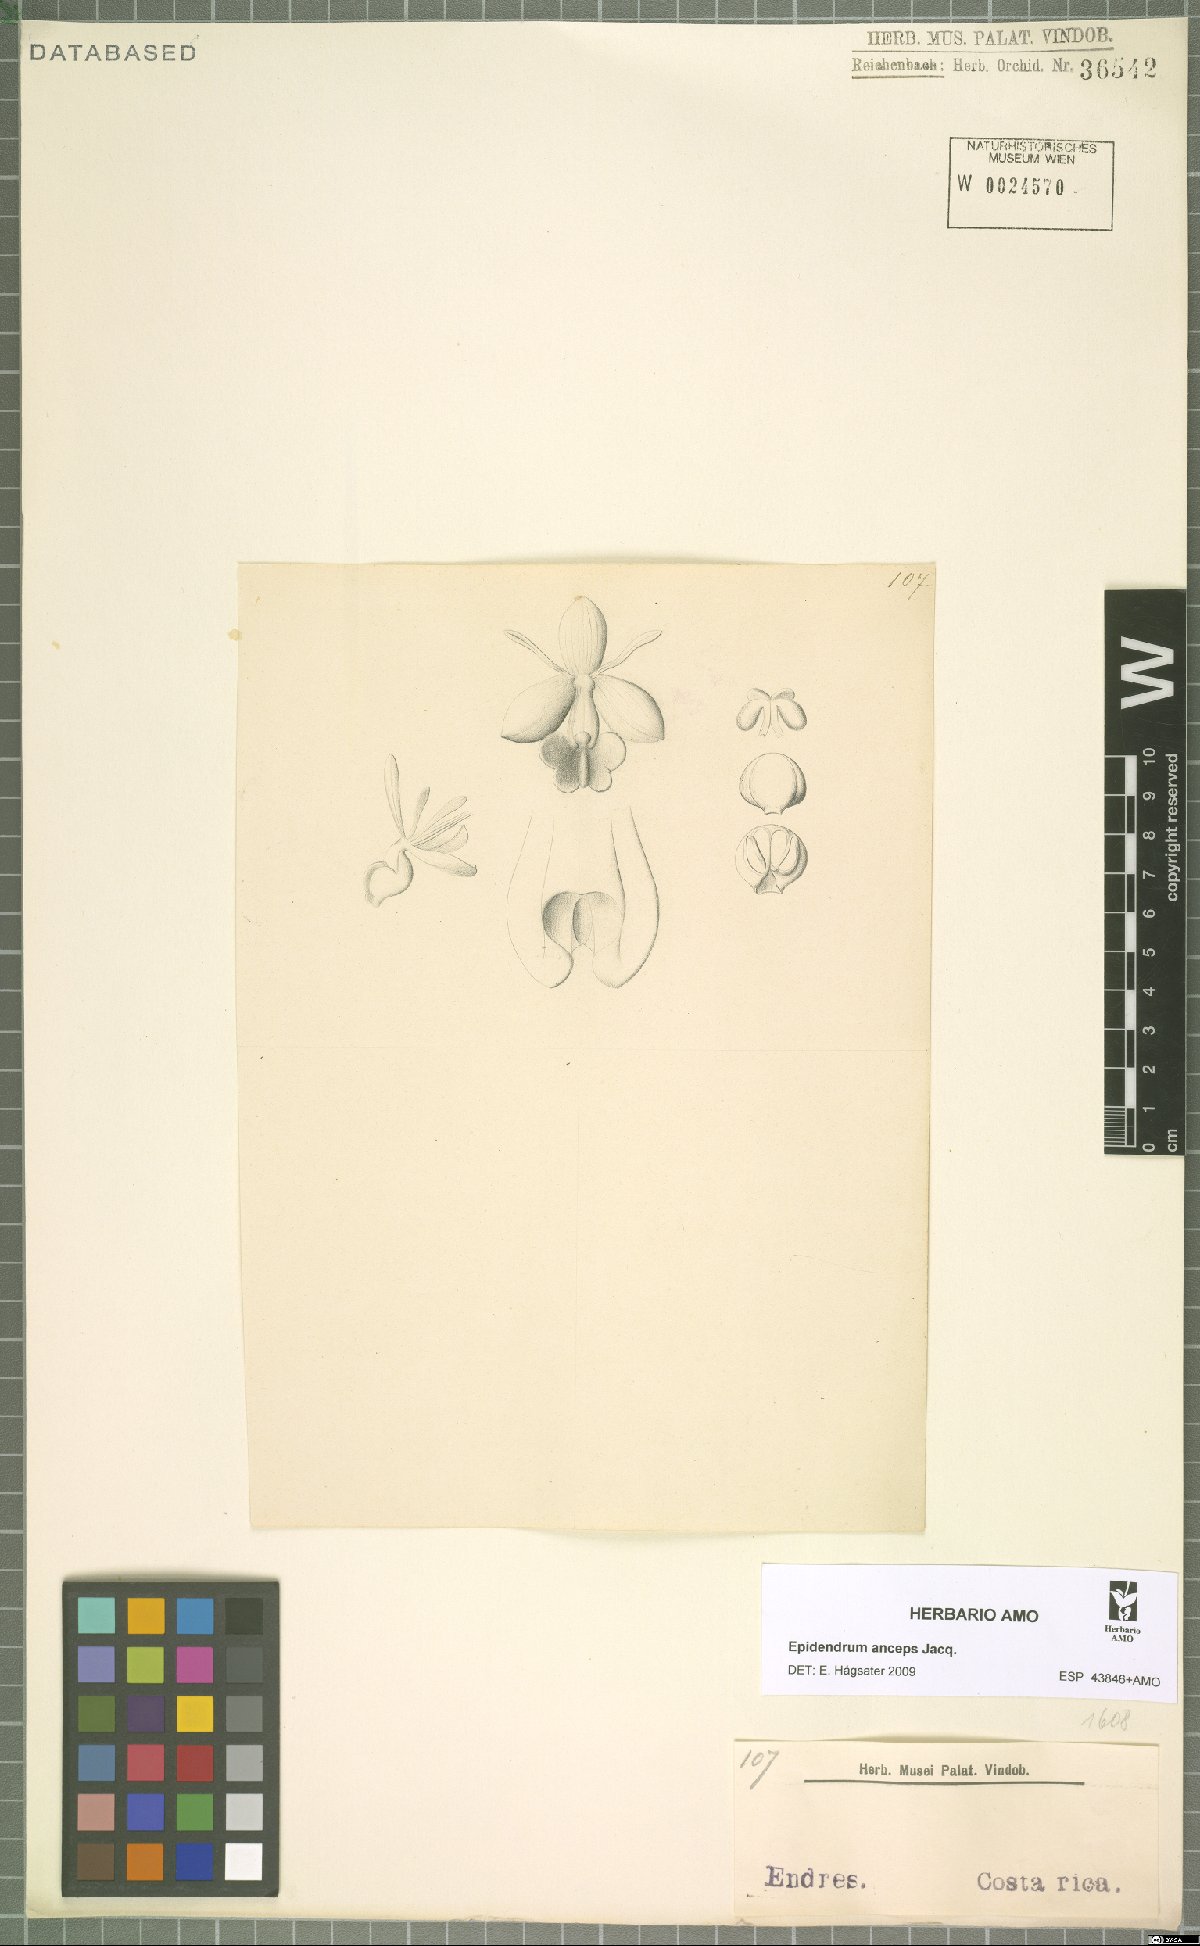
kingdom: Plantae
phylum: Tracheophyta
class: Liliopsida
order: Asparagales
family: Orchidaceae
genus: Epidendrum
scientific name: Epidendrum anceps
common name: Brown-flower butterfly orchid
